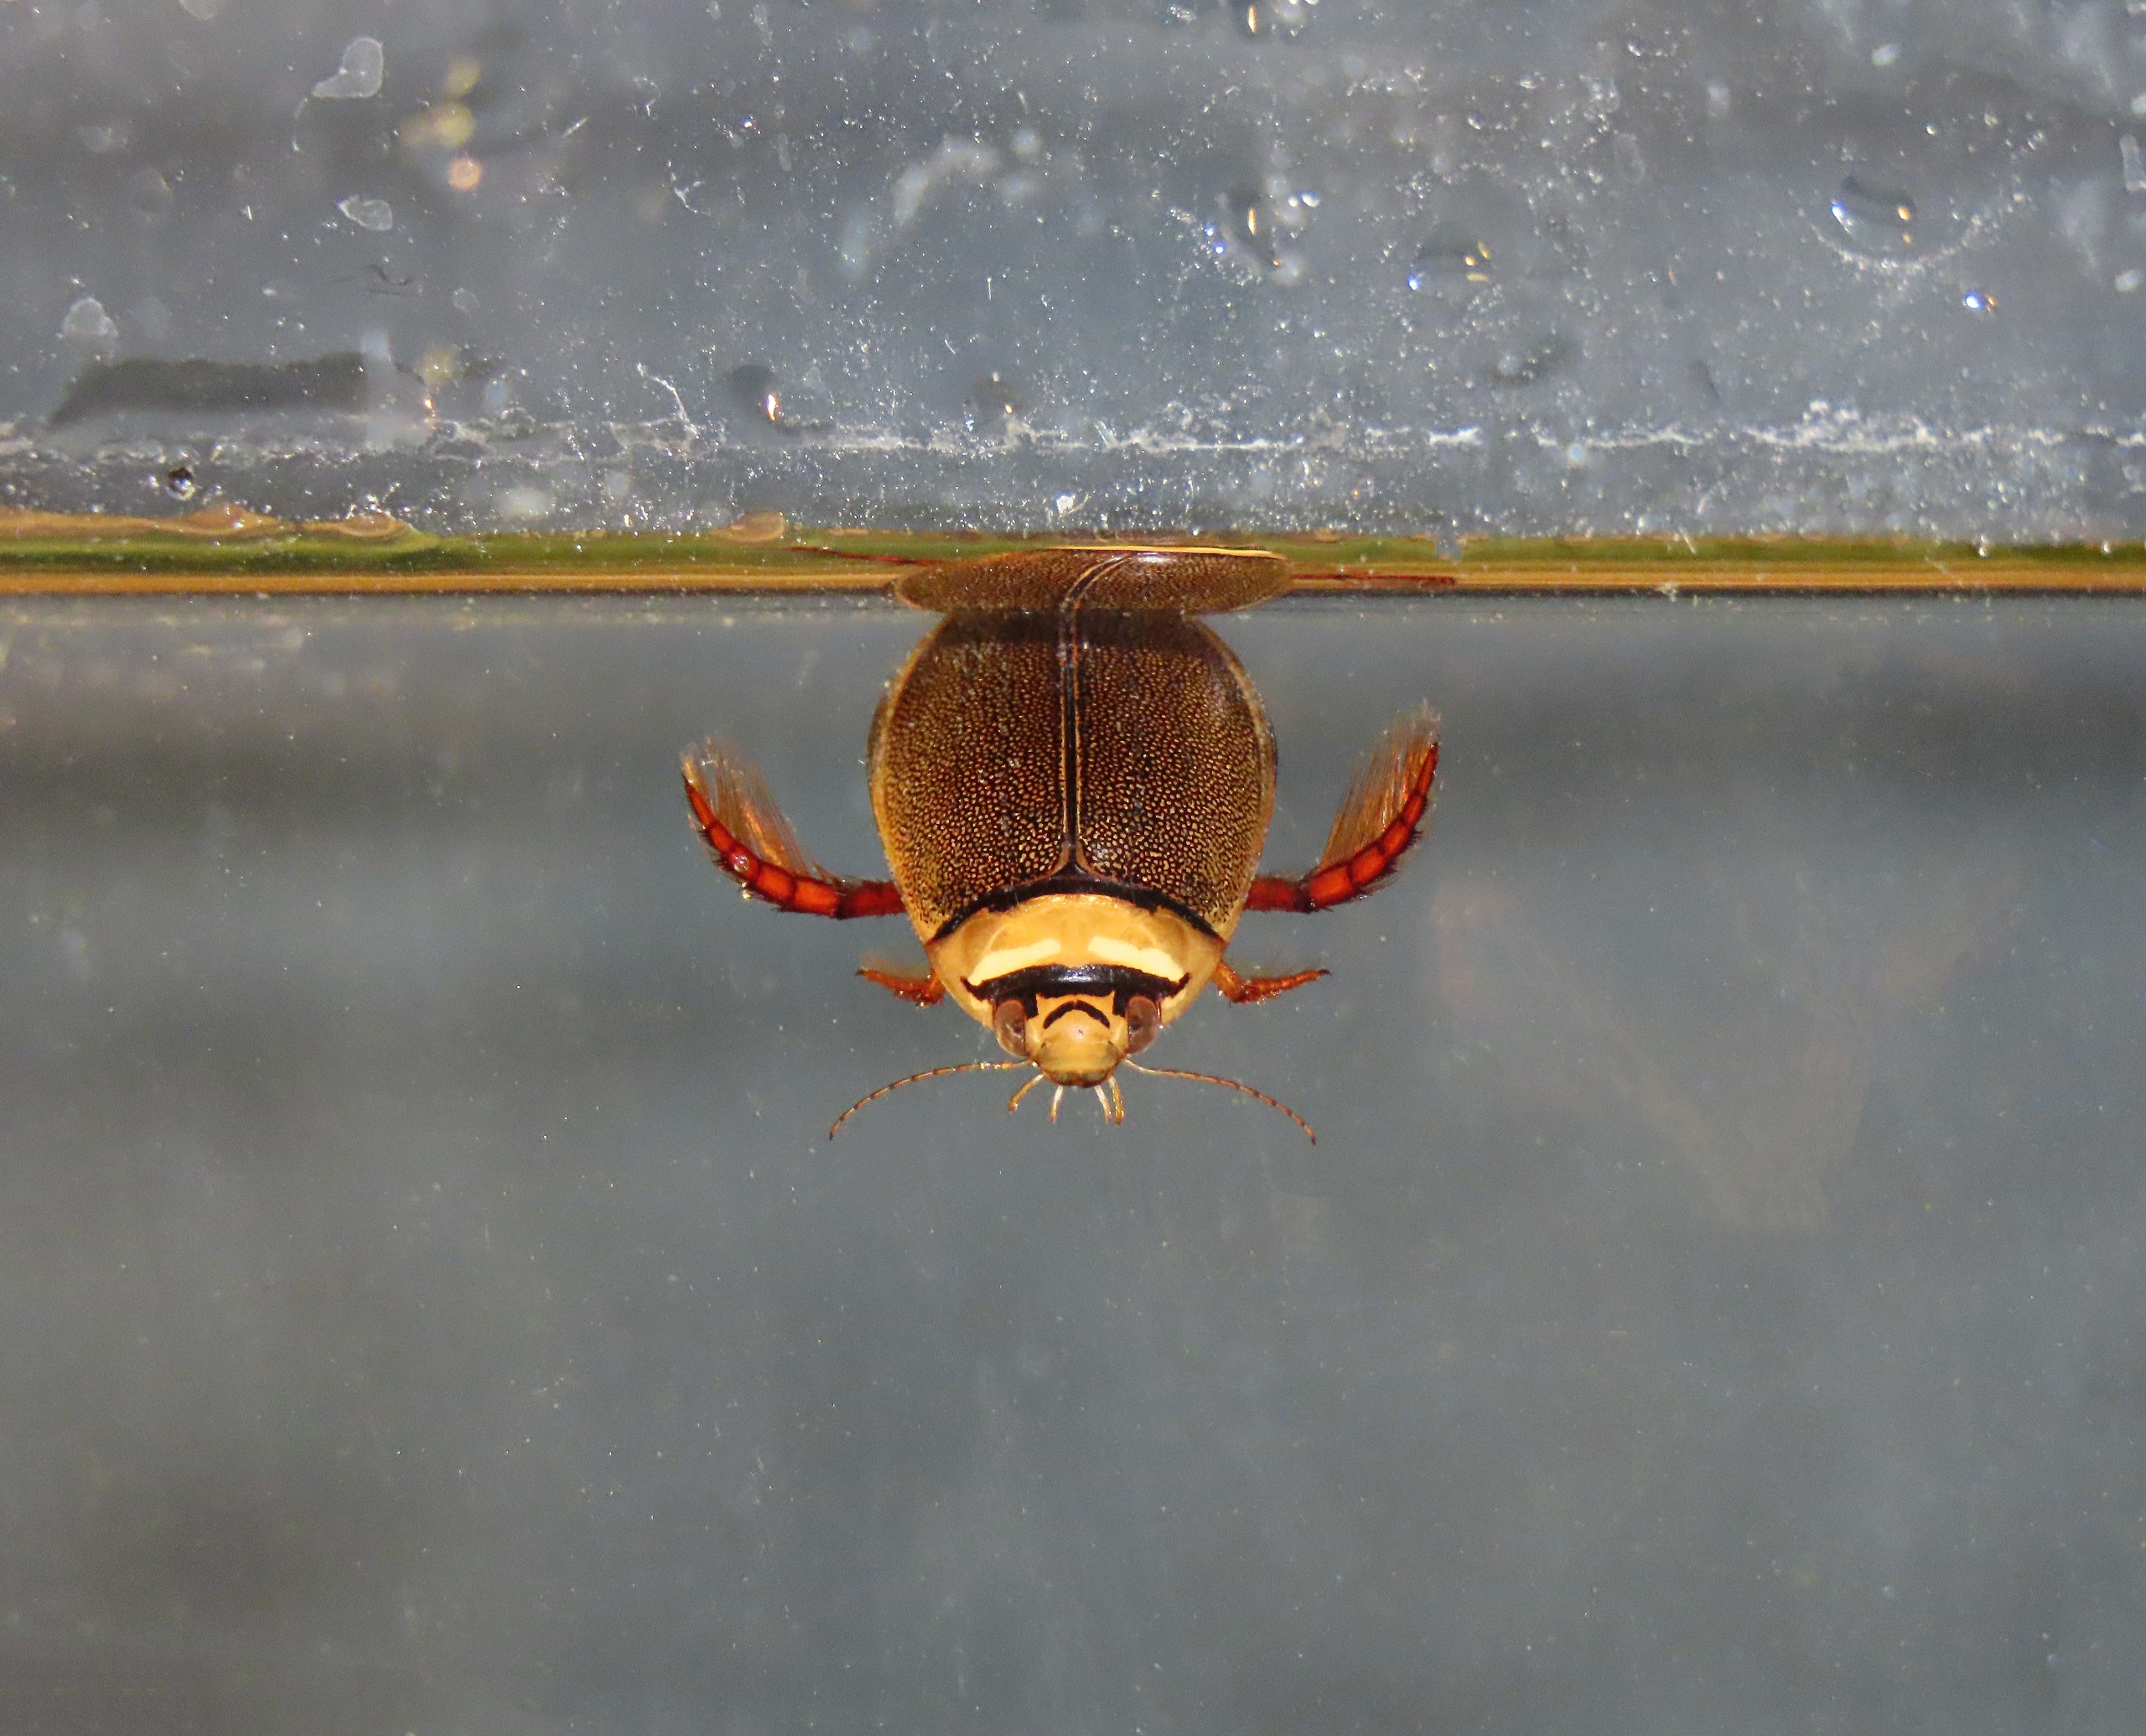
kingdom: Animalia
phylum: Arthropoda
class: Insecta
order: Coleoptera
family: Dytiscidae
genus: Graphoderus
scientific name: Graphoderus bilineatus
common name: Lys skivevandkalv
